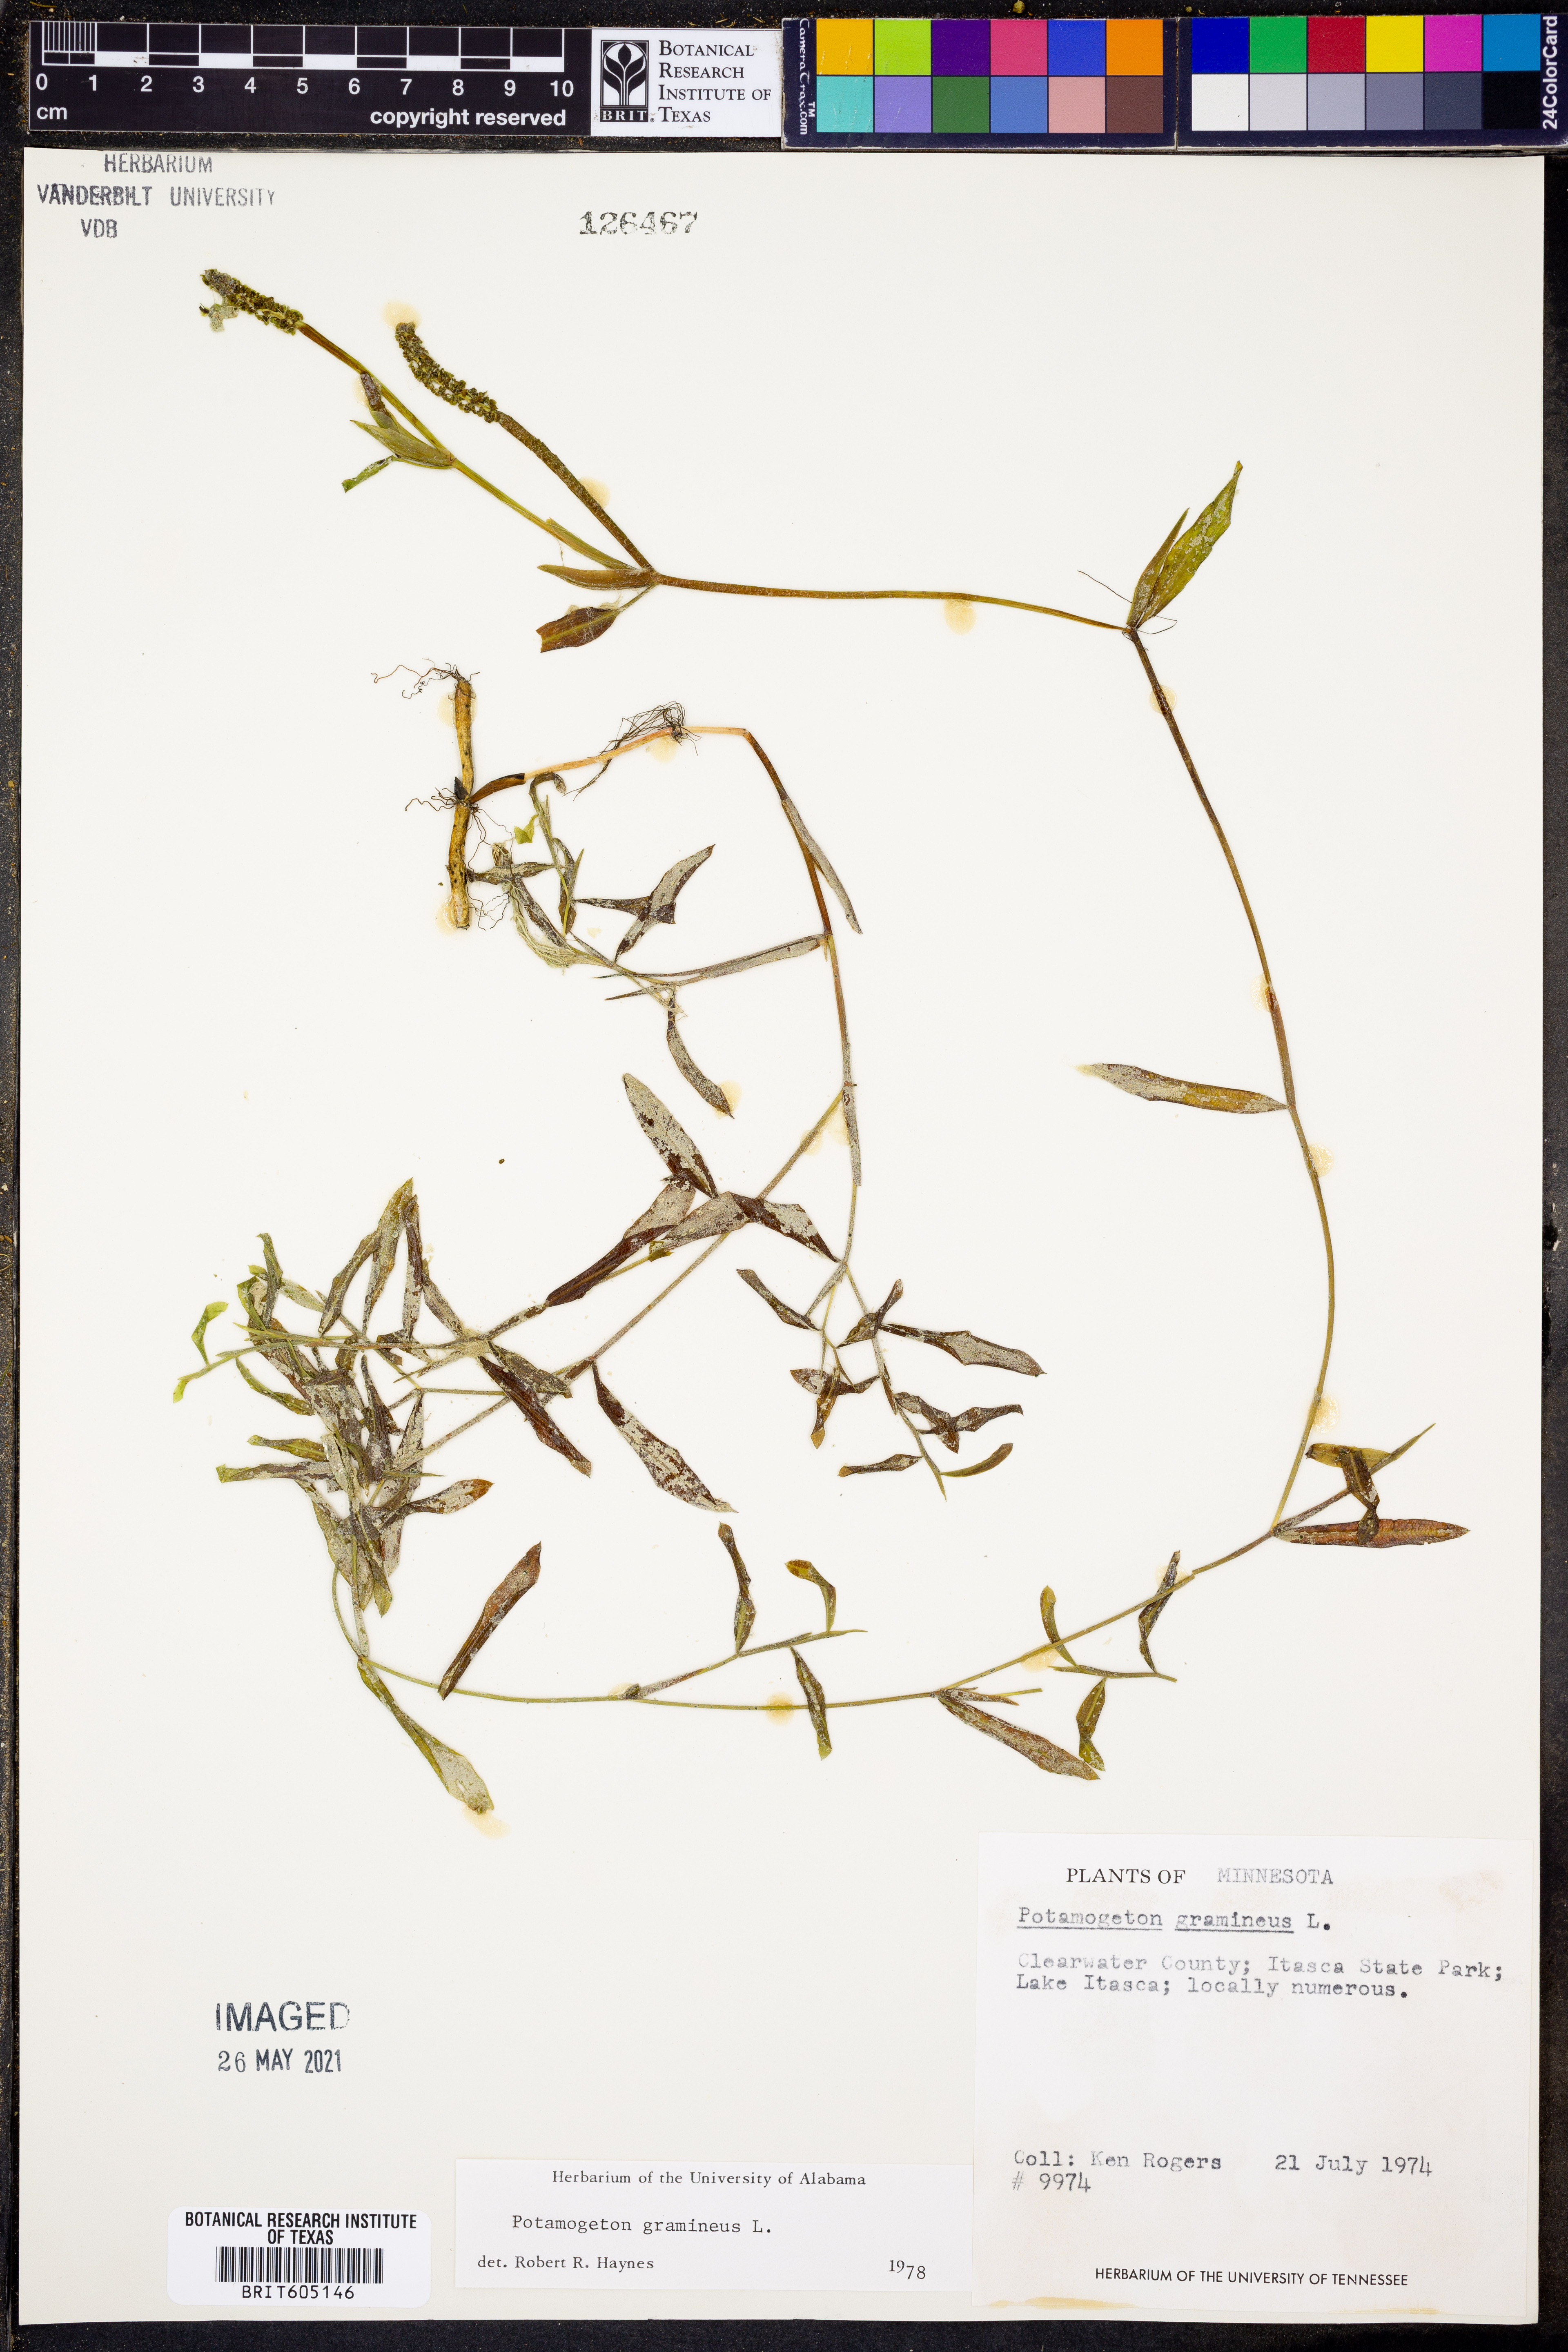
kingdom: Plantae
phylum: Tracheophyta
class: Liliopsida
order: Alismatales
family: Potamogetonaceae
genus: Potamogeton
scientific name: Potamogeton gramineus
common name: Various-leaved pondweed
